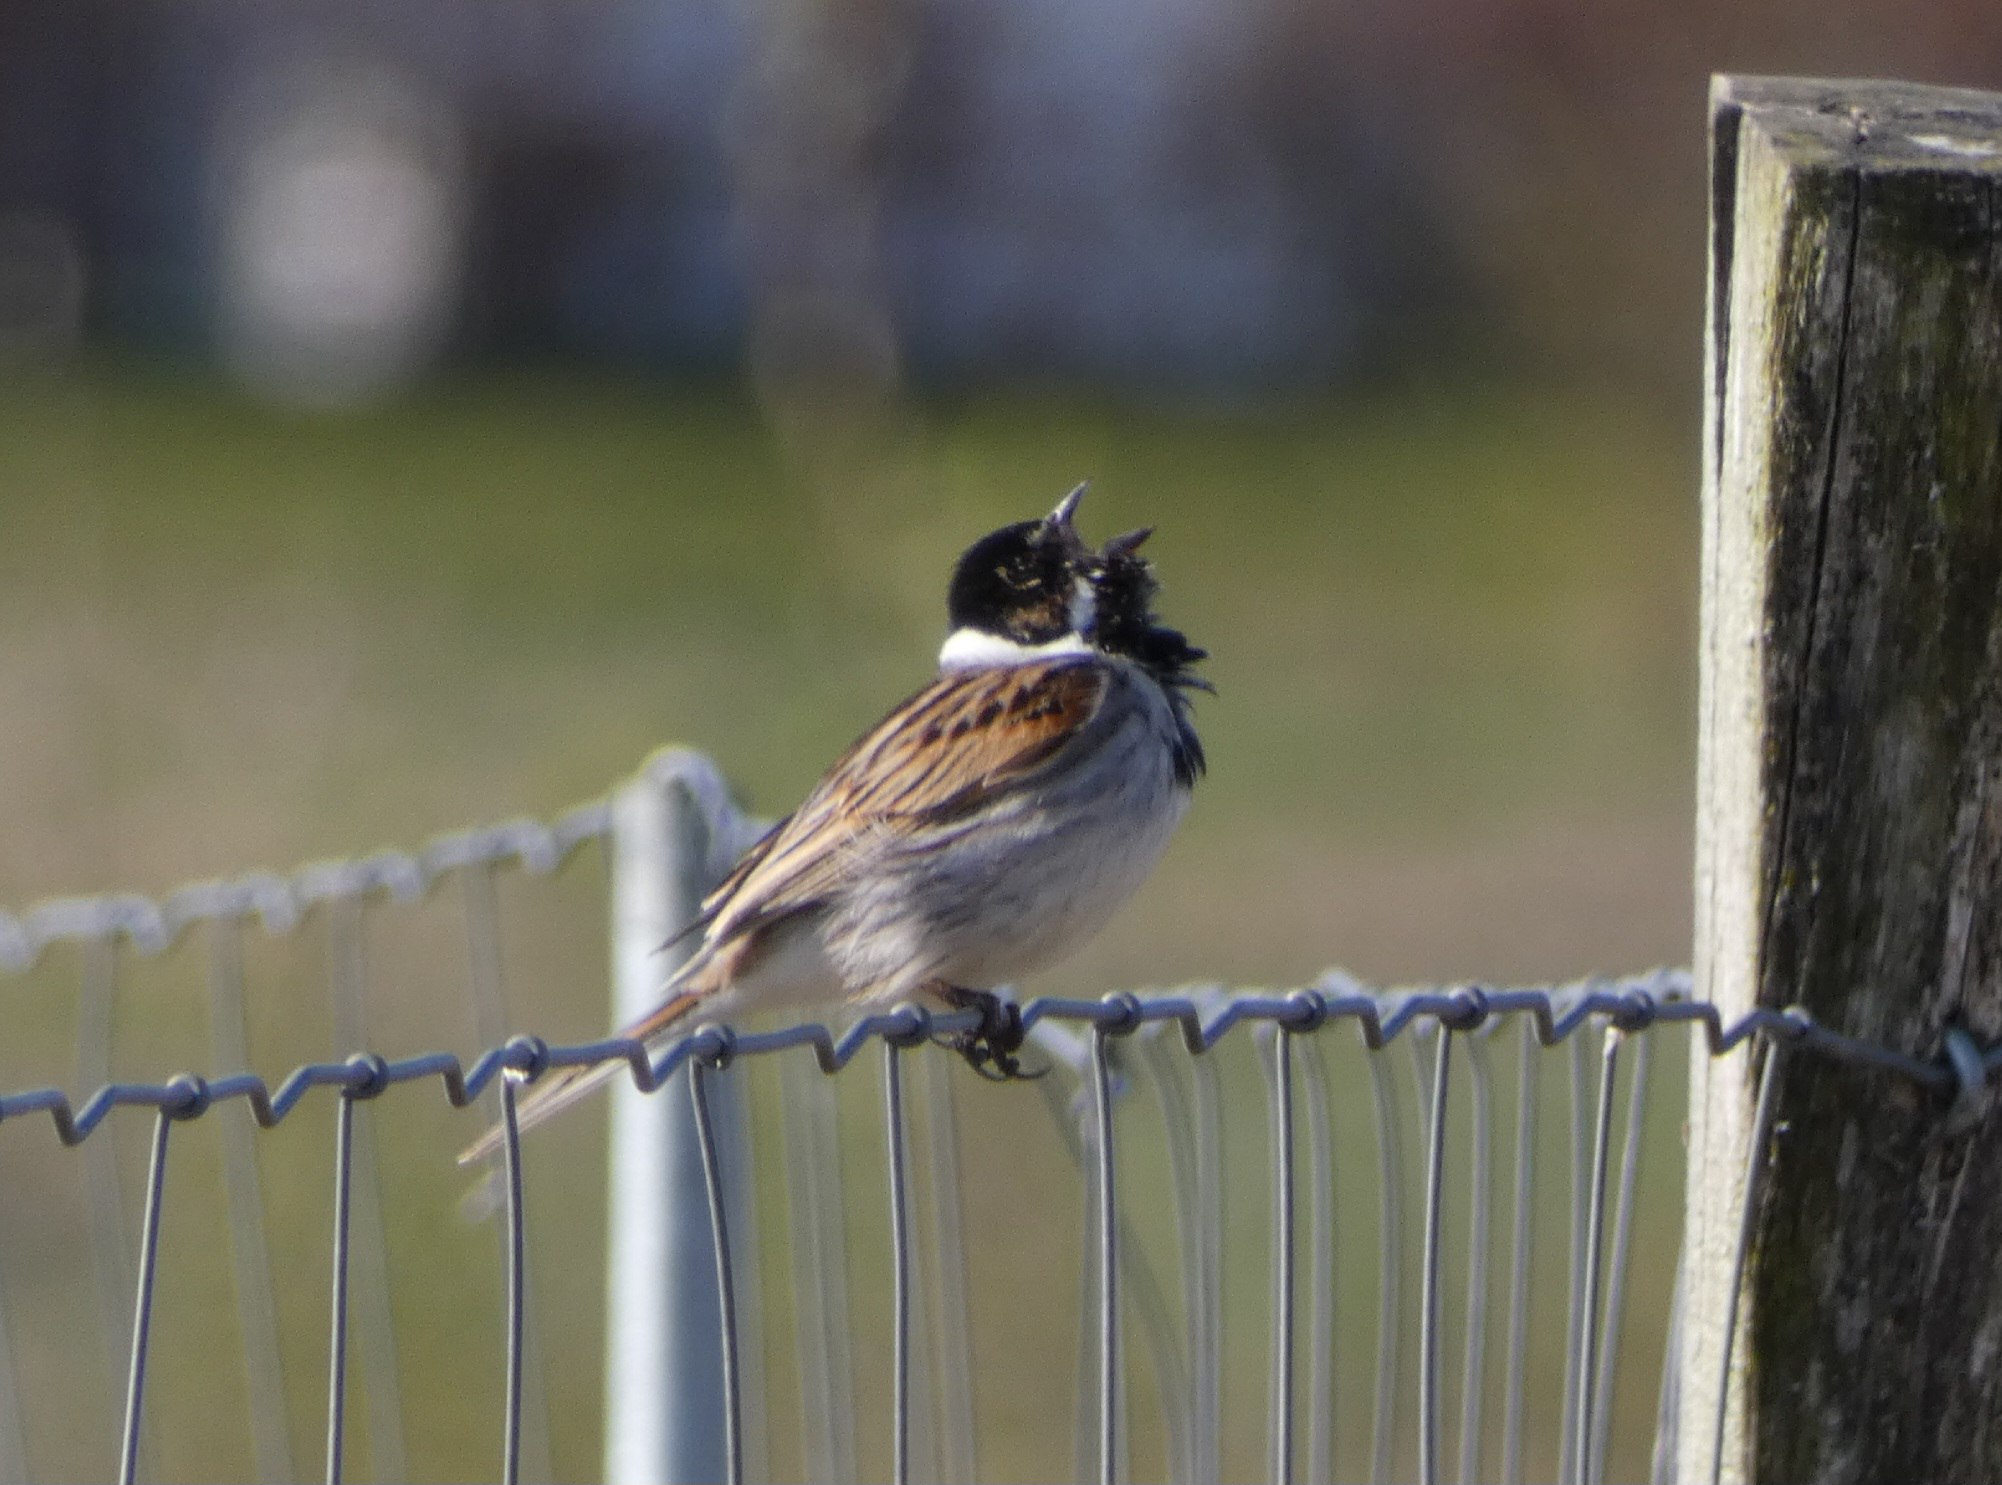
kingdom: Animalia
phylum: Chordata
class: Aves
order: Passeriformes
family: Emberizidae
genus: Emberiza
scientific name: Emberiza schoeniclus
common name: Rørspurv
